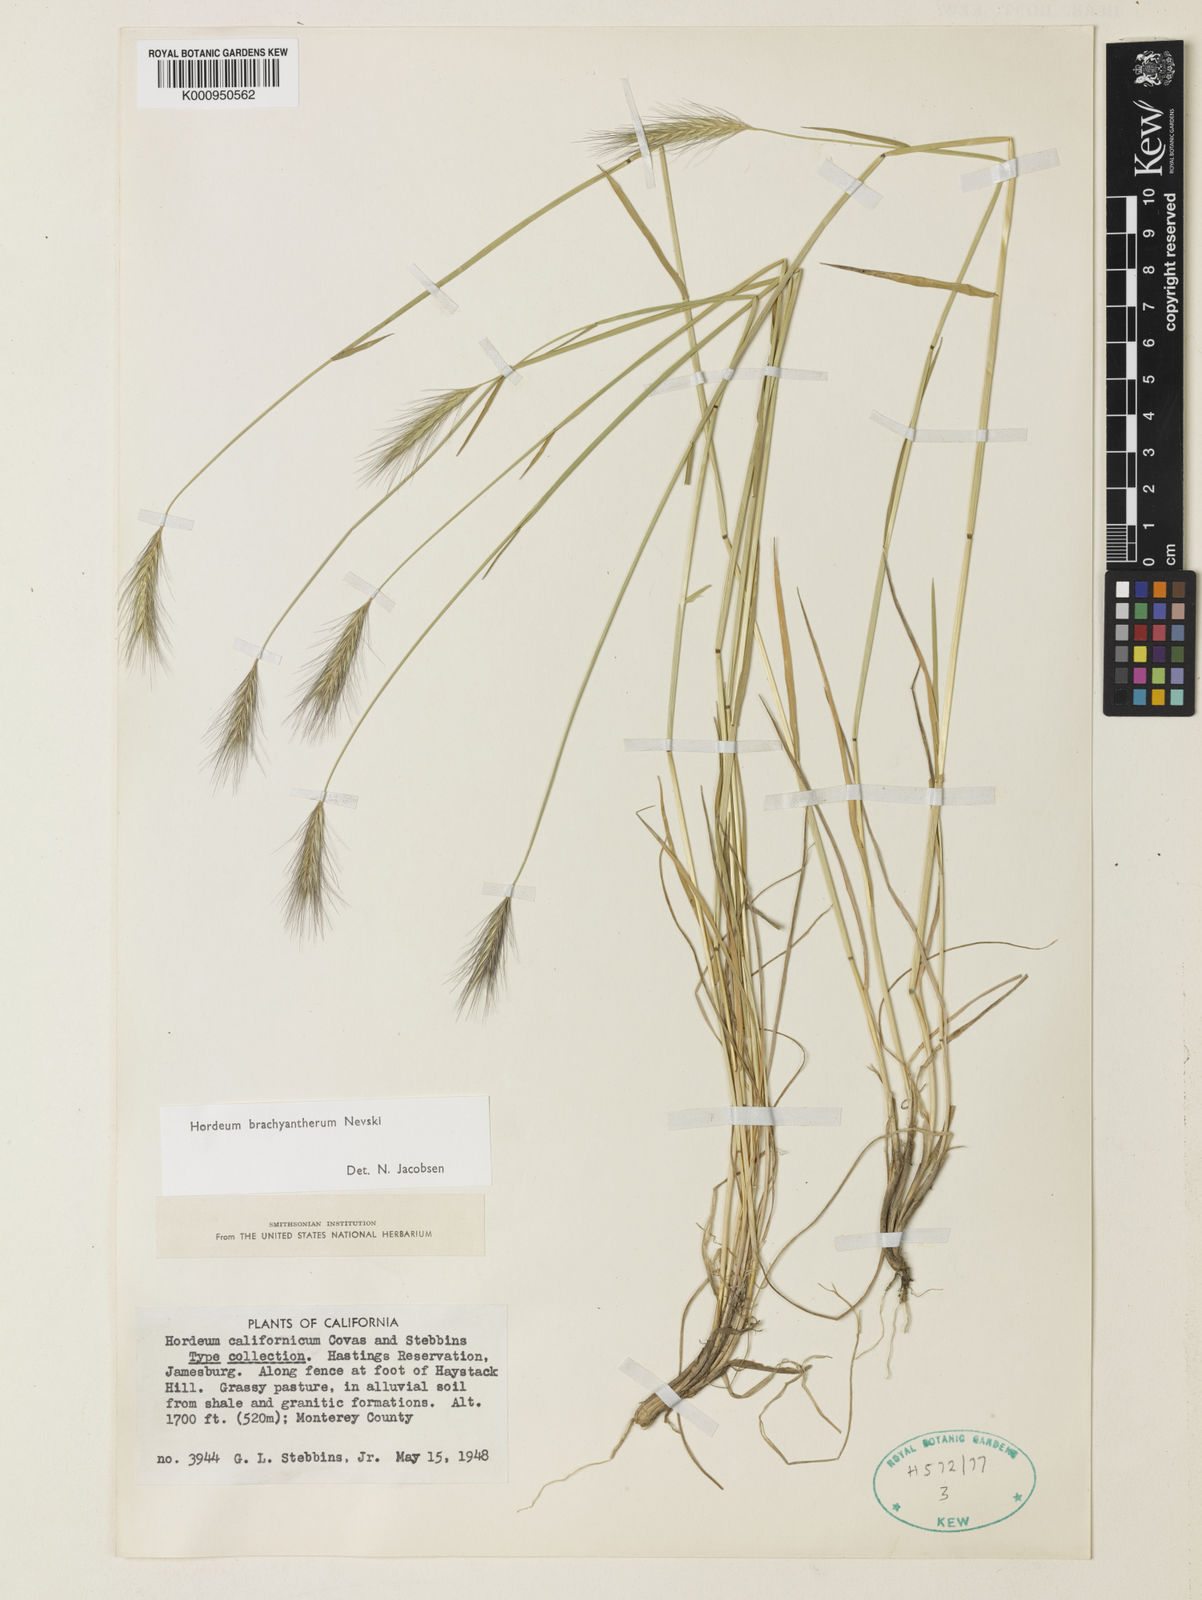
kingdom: Plantae
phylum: Tracheophyta
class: Liliopsida
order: Poales
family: Poaceae
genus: Hordeum
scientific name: Hordeum brachyantherum
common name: Meadow barley
